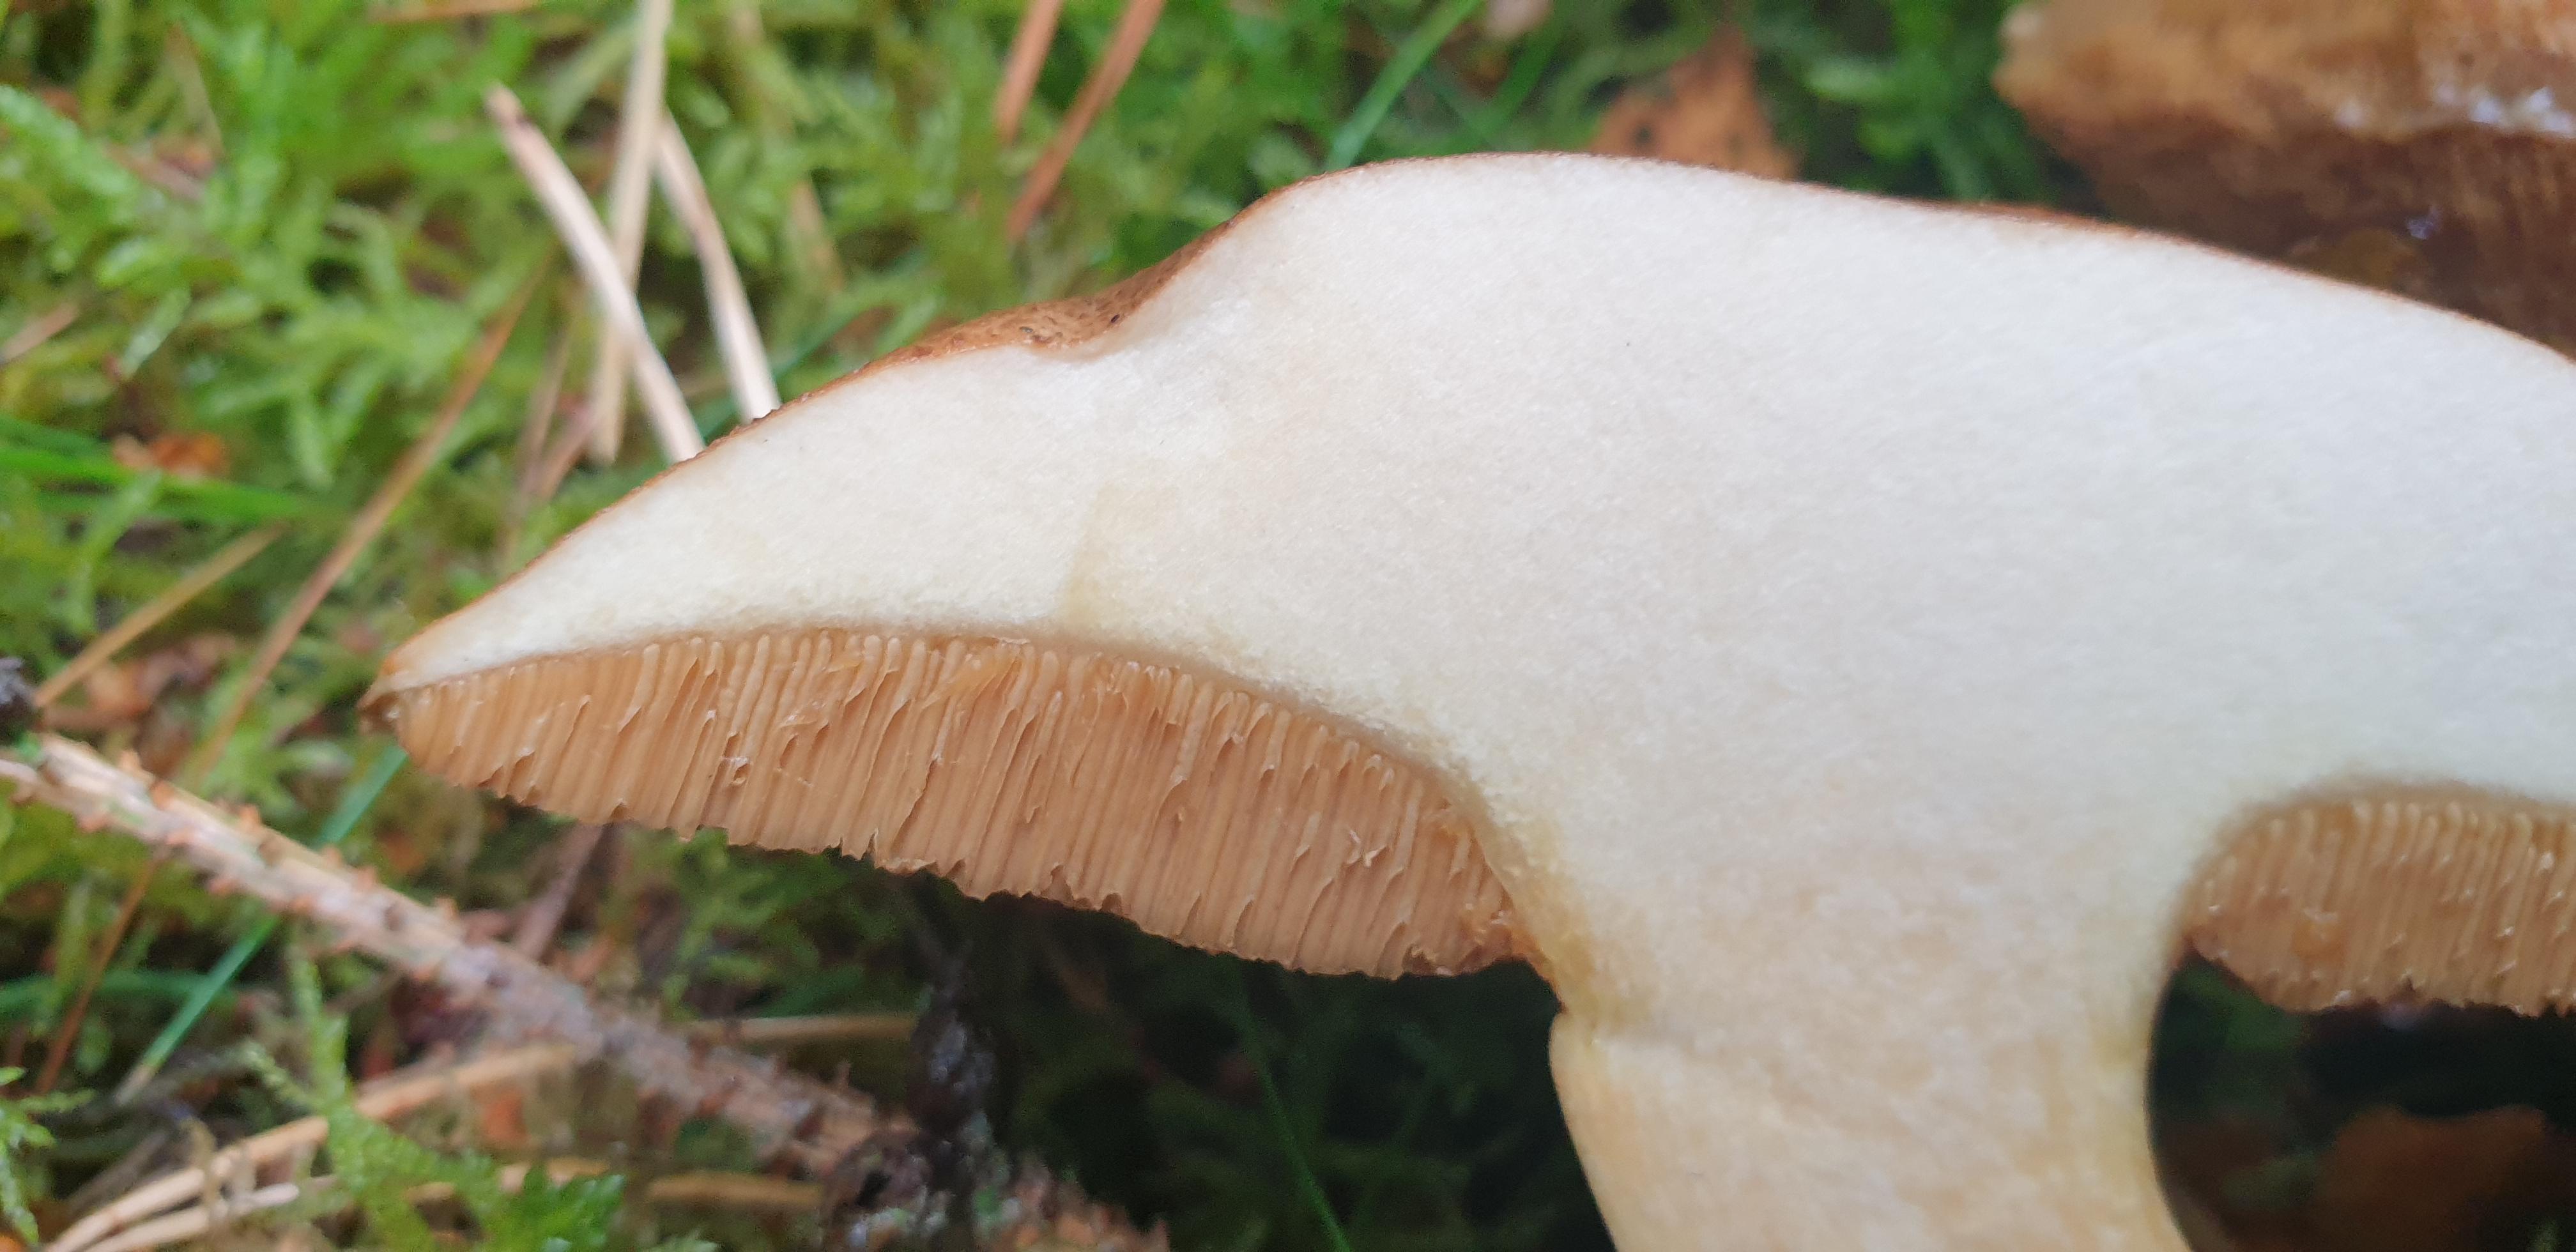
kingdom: Fungi
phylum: Basidiomycota
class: Agaricomycetes
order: Boletales
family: Suillaceae
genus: Suillus
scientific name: Suillus variegatus
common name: broget slimrørhat
